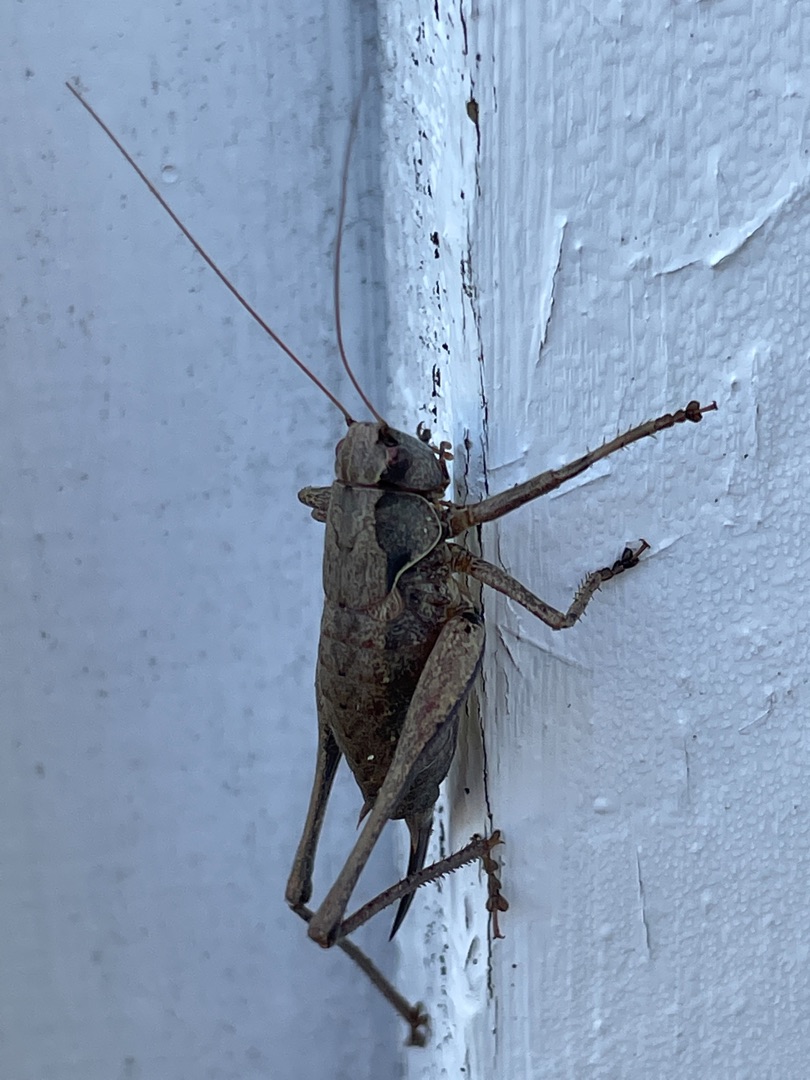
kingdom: Animalia
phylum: Arthropoda
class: Insecta
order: Orthoptera
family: Tettigoniidae
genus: Pholidoptera
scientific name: Pholidoptera griseoaptera
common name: Buskgræshoppe
